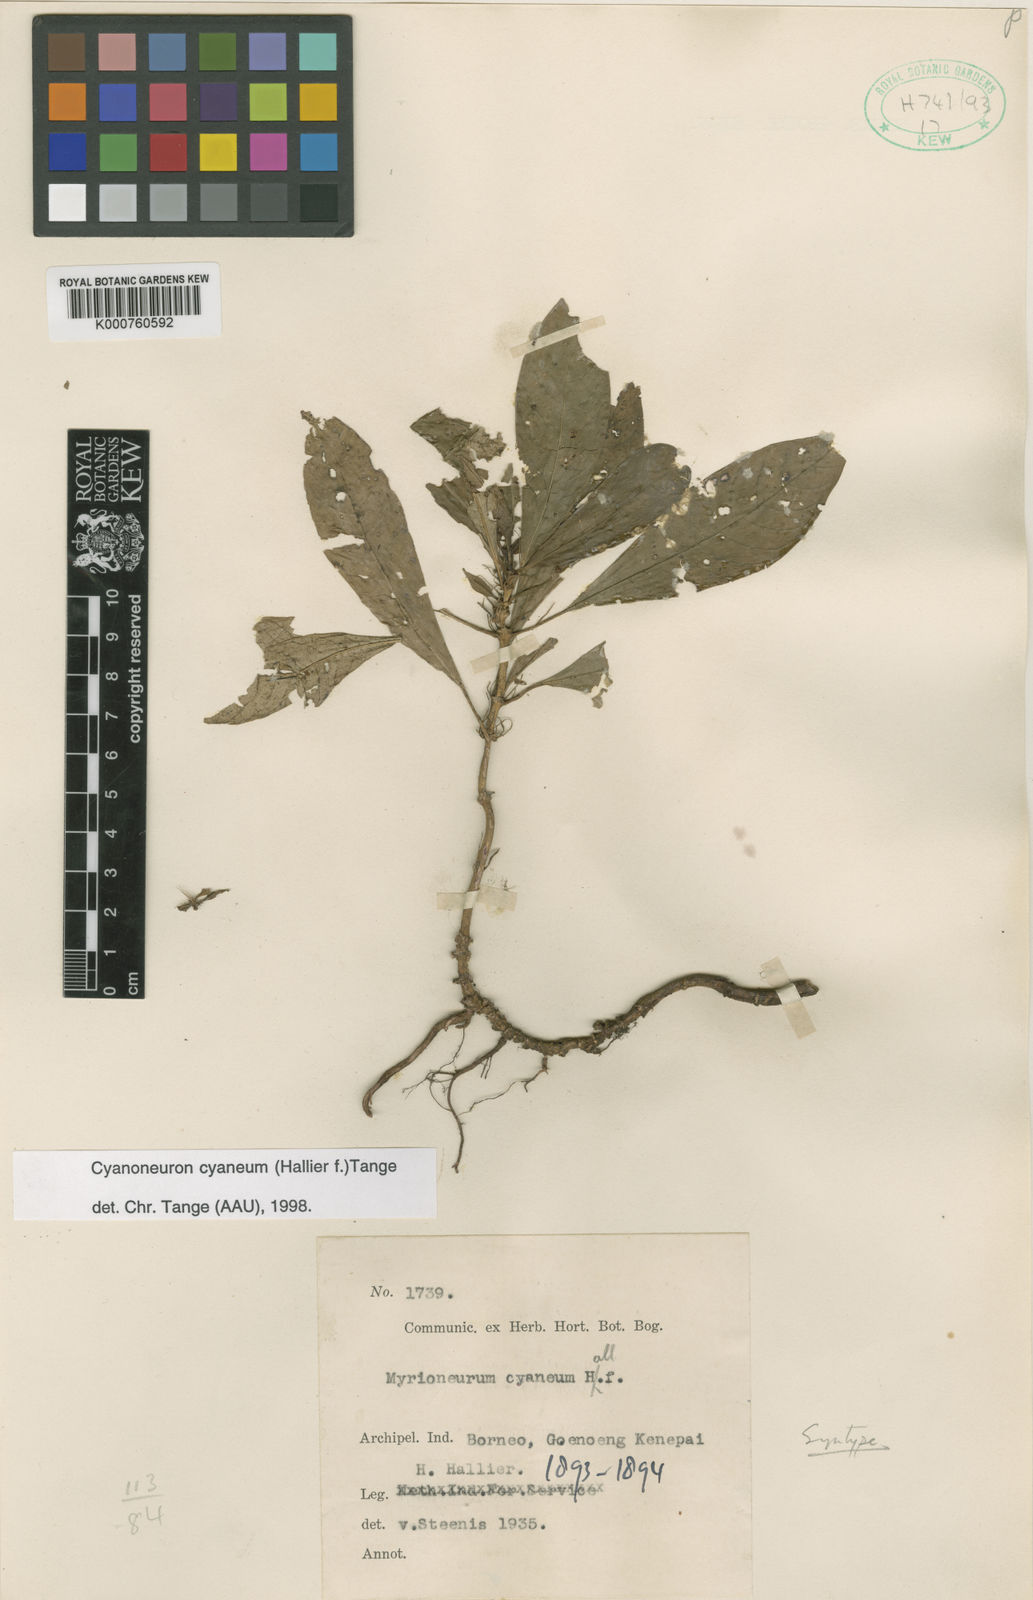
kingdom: Plantae
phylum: Tracheophyta
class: Magnoliopsida
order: Gentianales
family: Rubiaceae
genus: Cyanoneuron
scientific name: Cyanoneuron cyaneum
